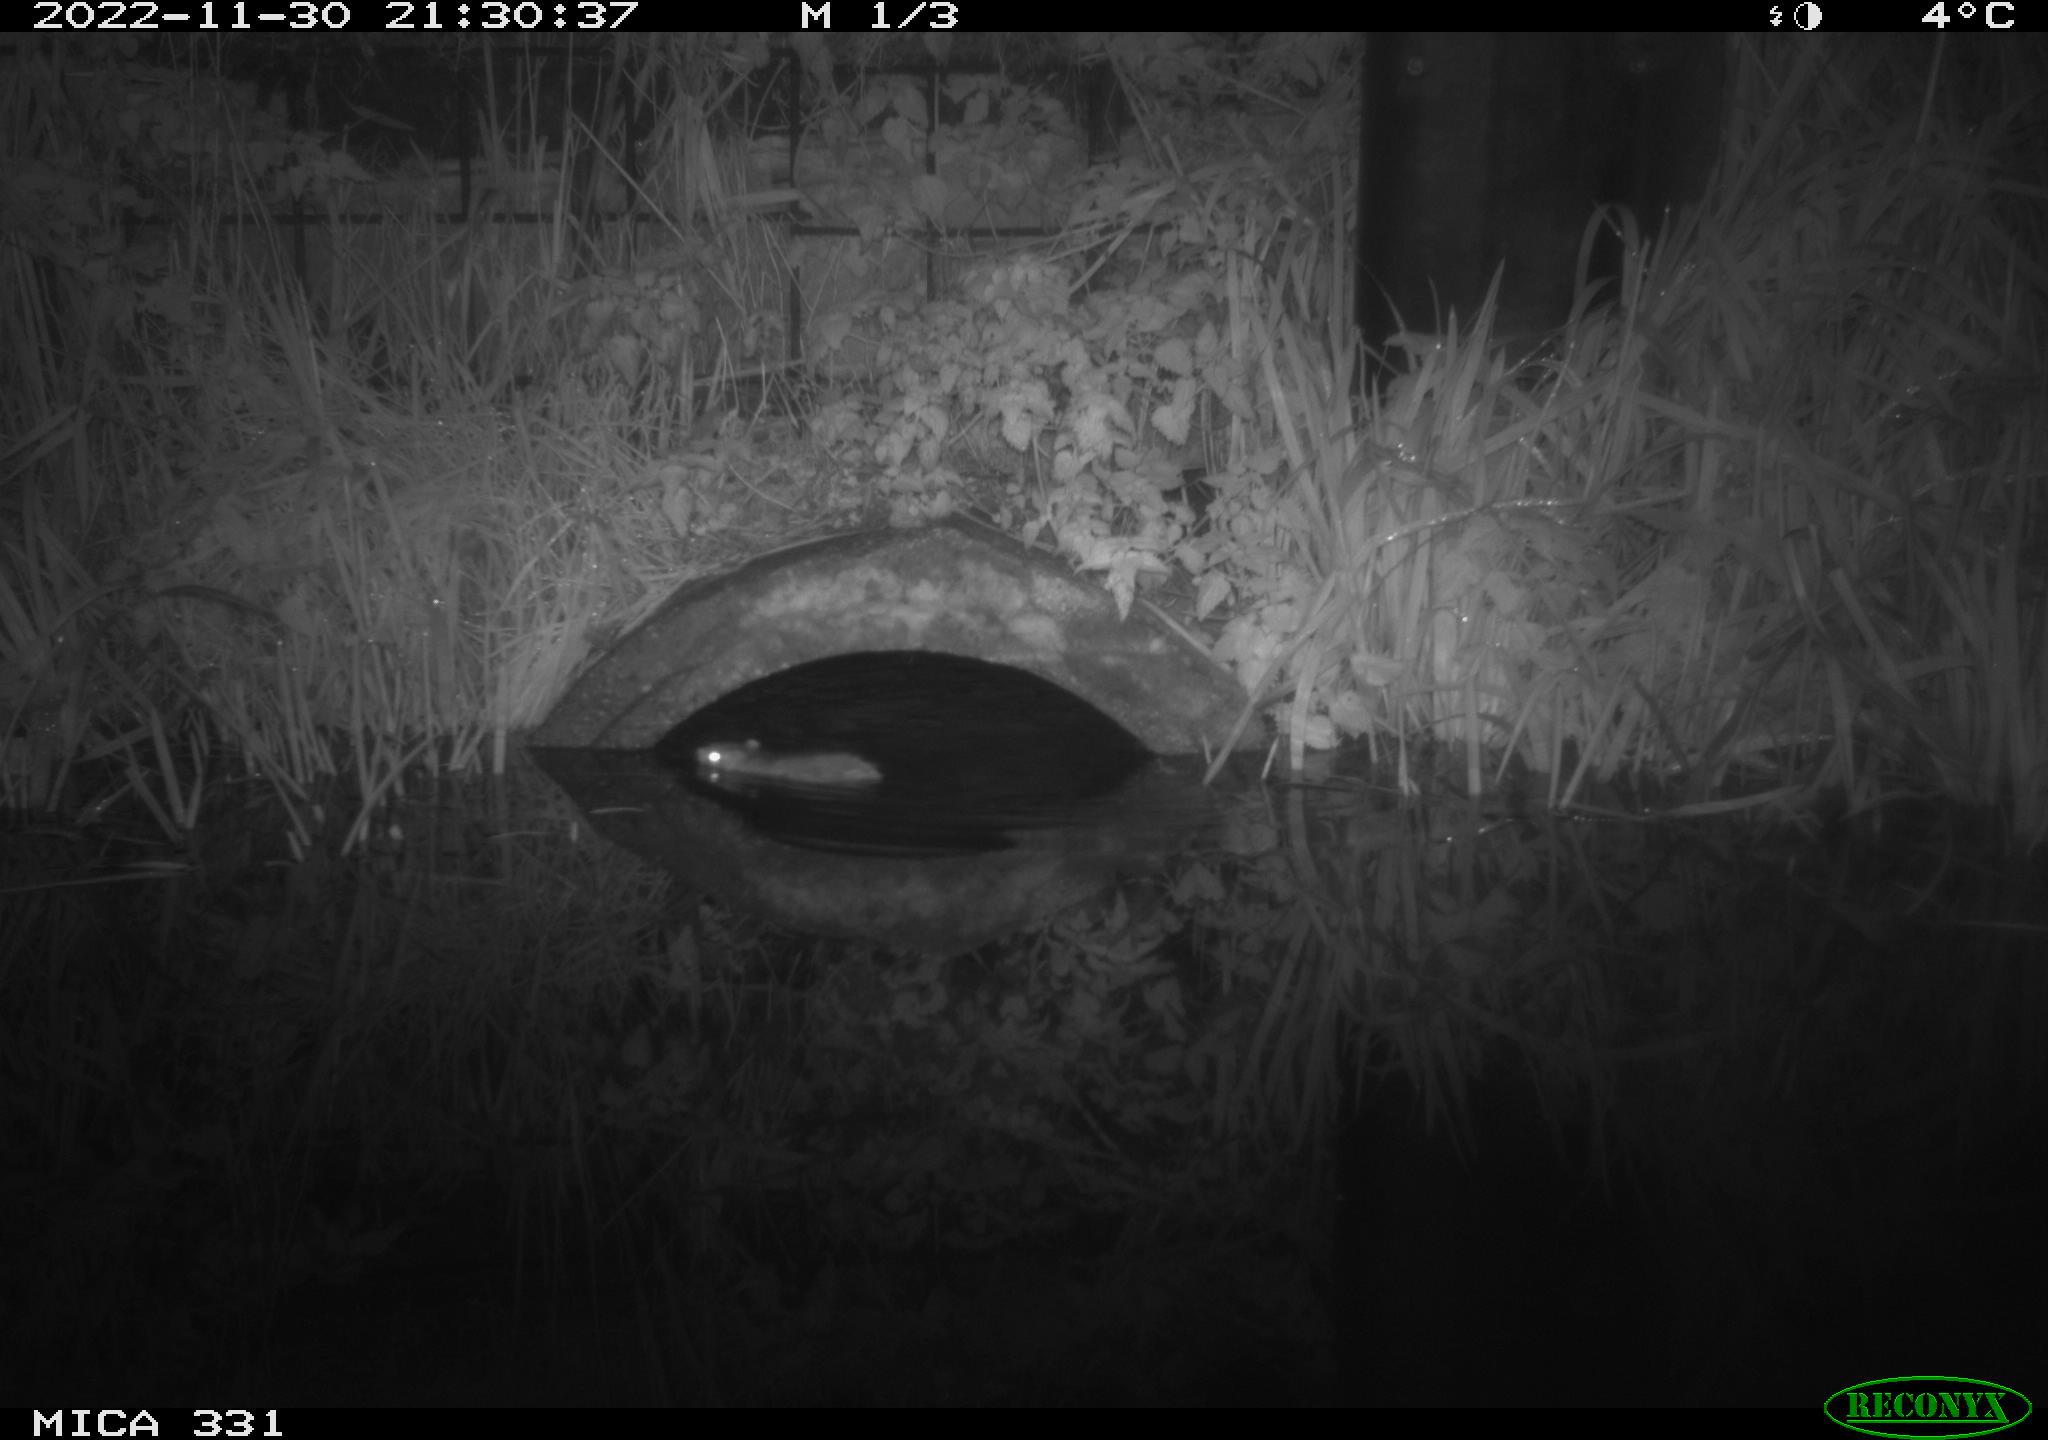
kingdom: Animalia
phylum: Chordata
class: Mammalia
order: Rodentia
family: Muridae
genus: Rattus
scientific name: Rattus norvegicus
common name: Brown rat
